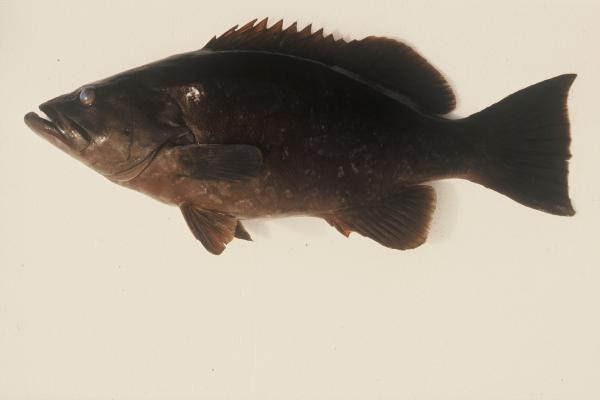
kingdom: Animalia
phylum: Chordata
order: Perciformes
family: Serranidae
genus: Mycteroperca
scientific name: Mycteroperca fusca
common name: Island grouper
